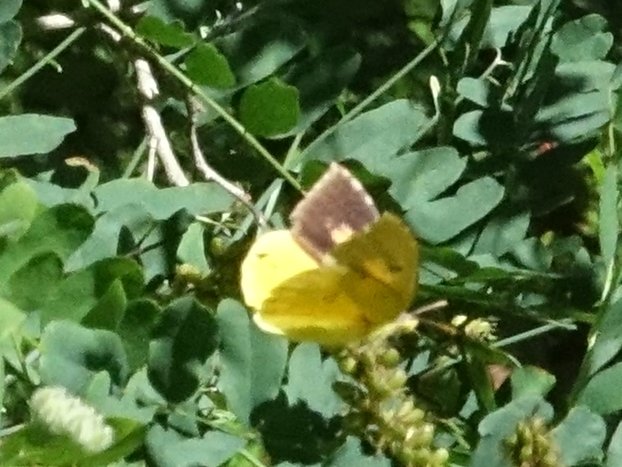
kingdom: Animalia
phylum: Arthropoda
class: Insecta
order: Lepidoptera
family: Pieridae
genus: Zerene
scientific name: Zerene eurydice
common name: California Dogface
